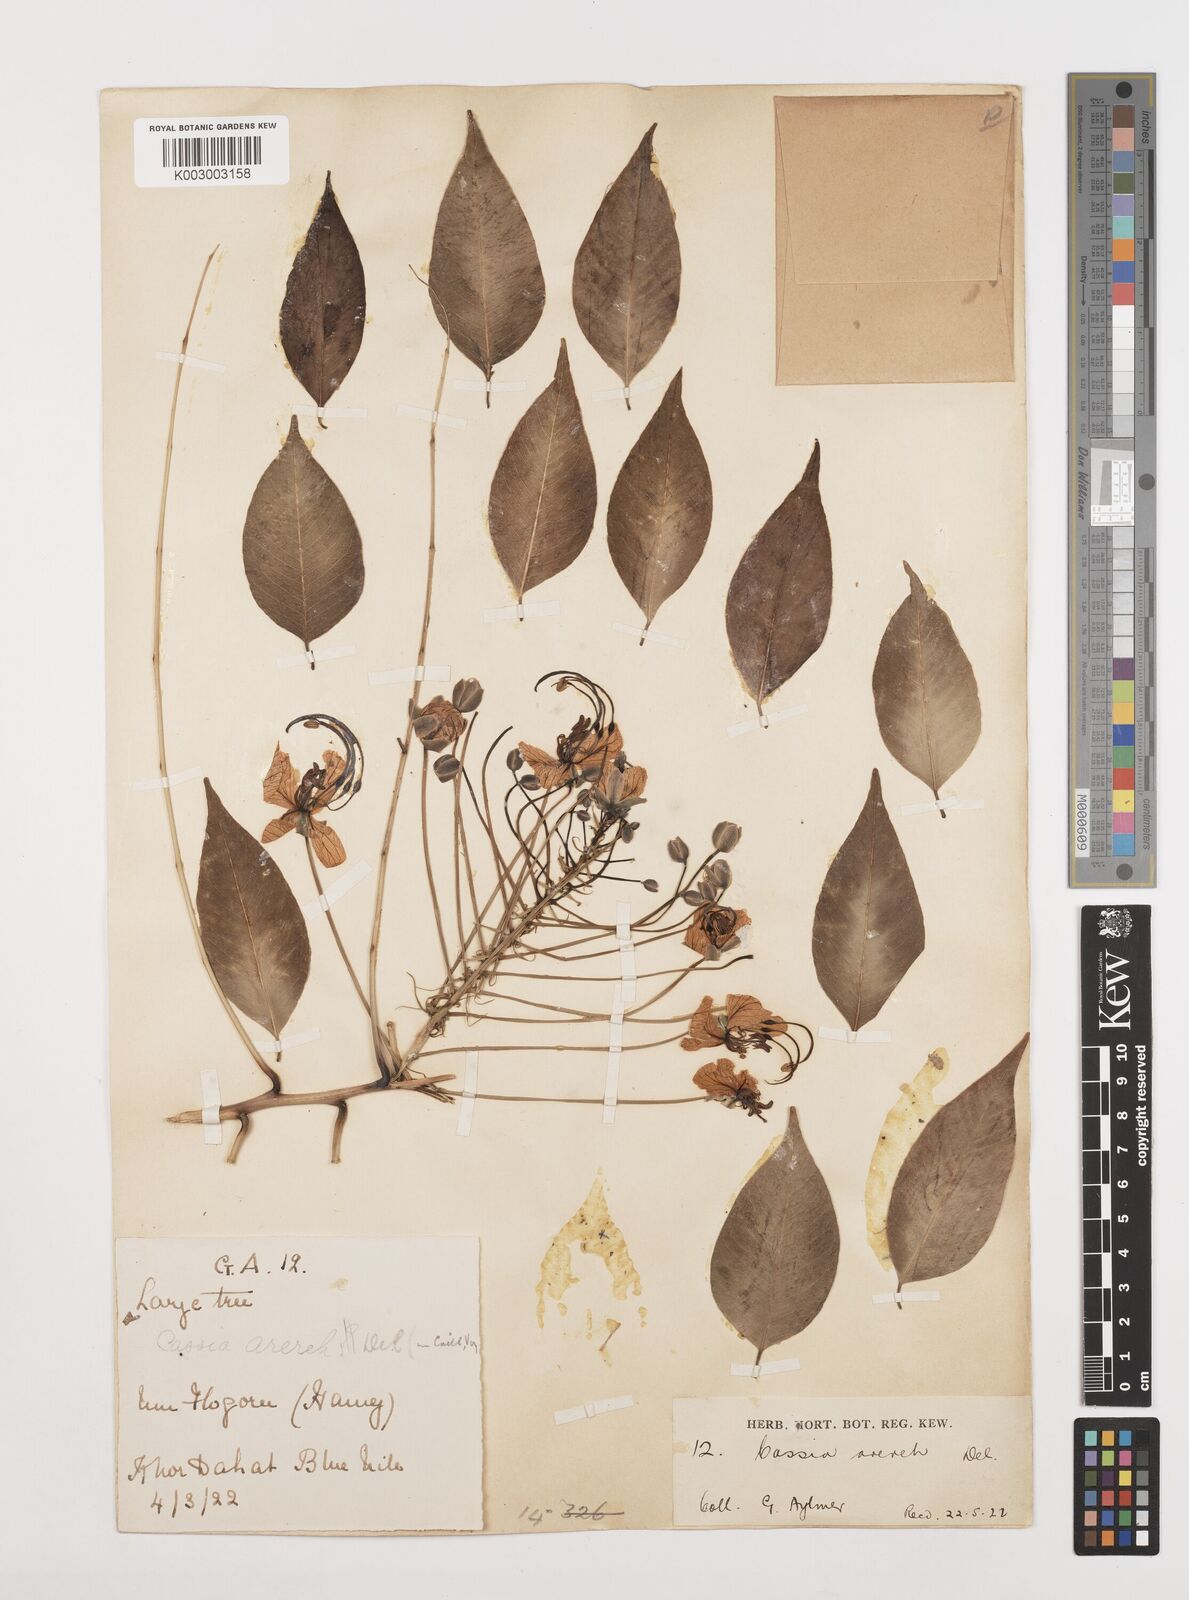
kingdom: Plantae
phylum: Tracheophyta
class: Magnoliopsida
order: Fabales
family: Fabaceae
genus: Cassia
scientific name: Cassia arereh
